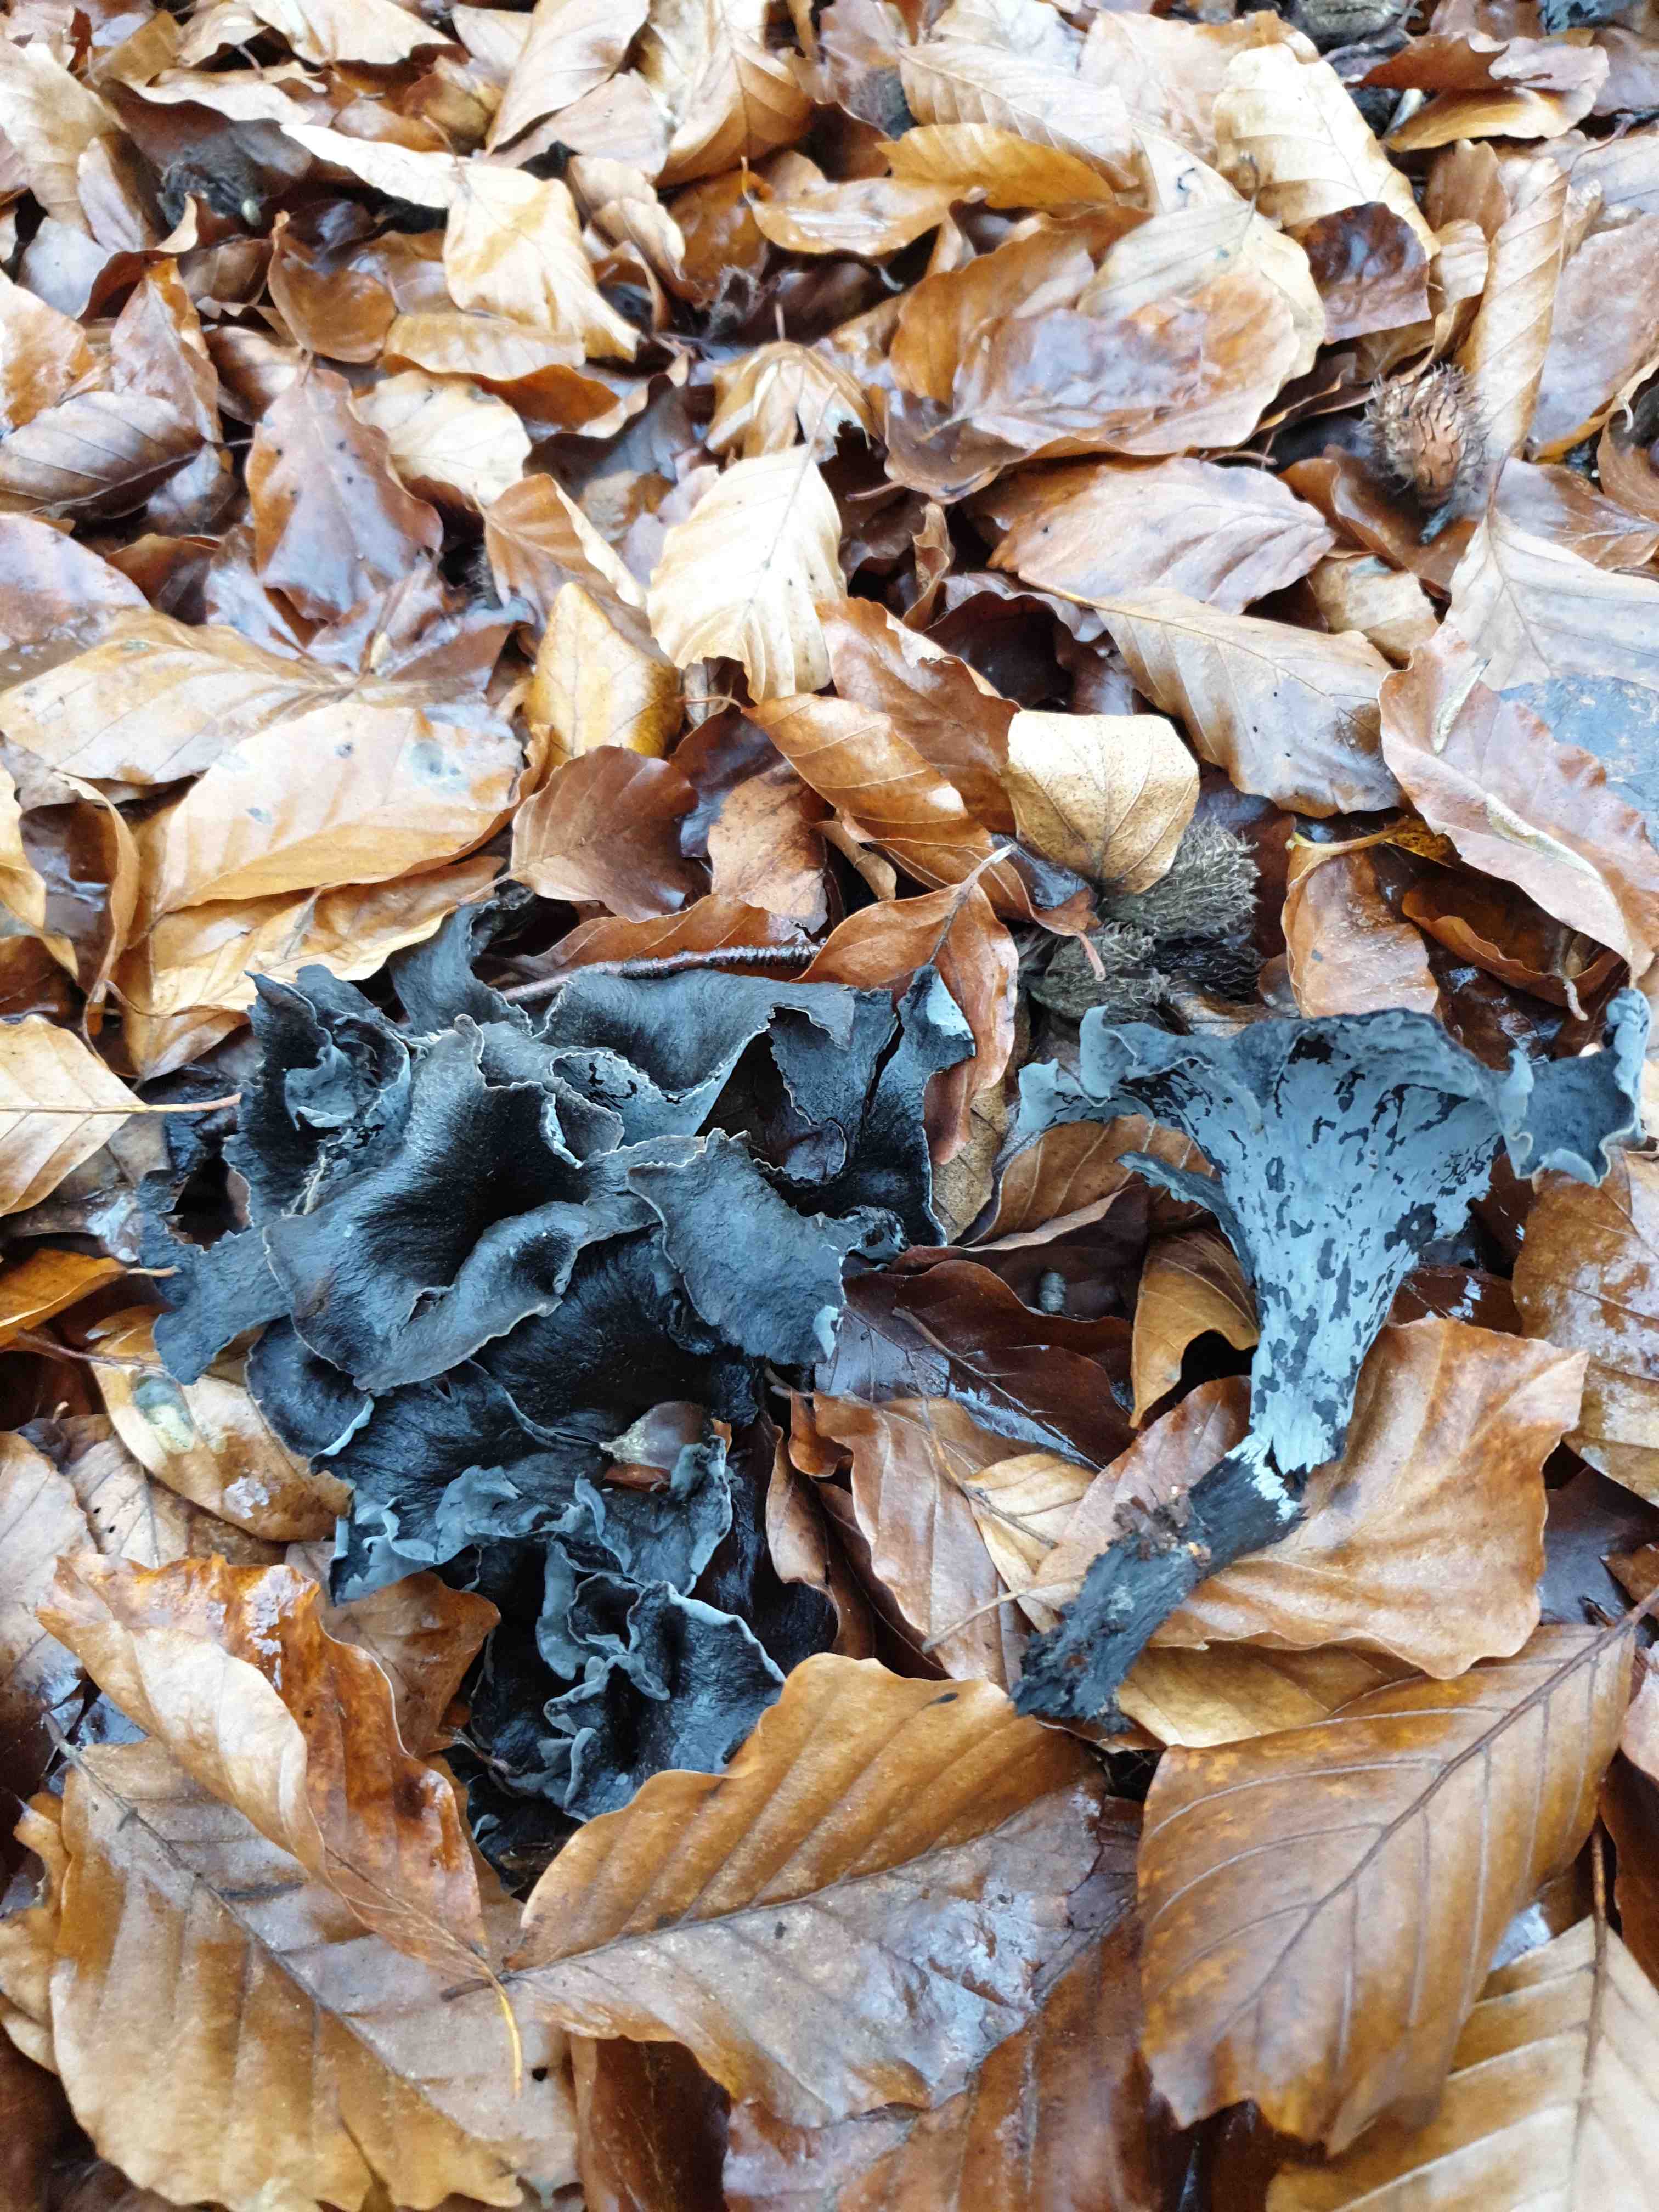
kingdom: Fungi
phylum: Basidiomycota
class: Agaricomycetes
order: Cantharellales
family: Hydnaceae
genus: Craterellus
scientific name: Craterellus cornucopioides
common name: trompetsvamp
